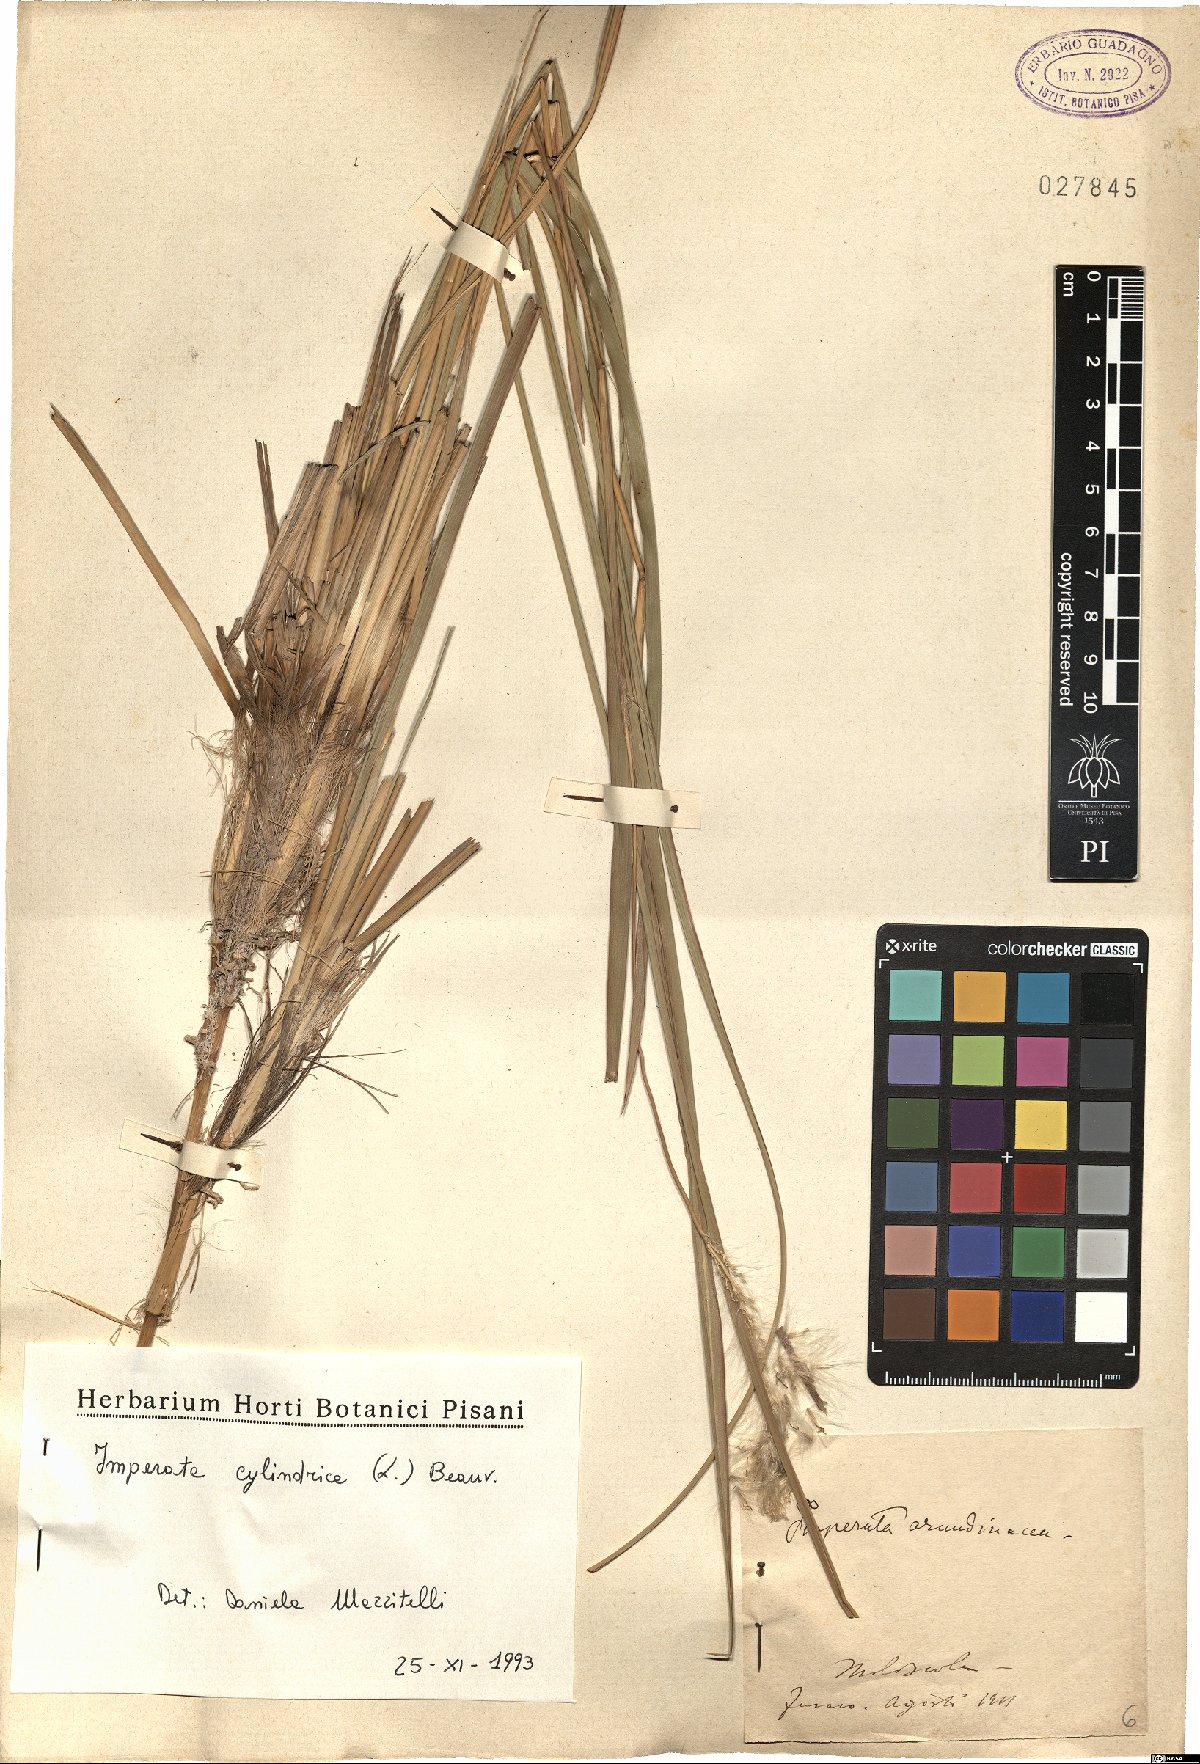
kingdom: Plantae
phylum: Tracheophyta
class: Liliopsida
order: Poales
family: Poaceae
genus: Imperata
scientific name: Imperata cylindrica
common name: Cogongrass
